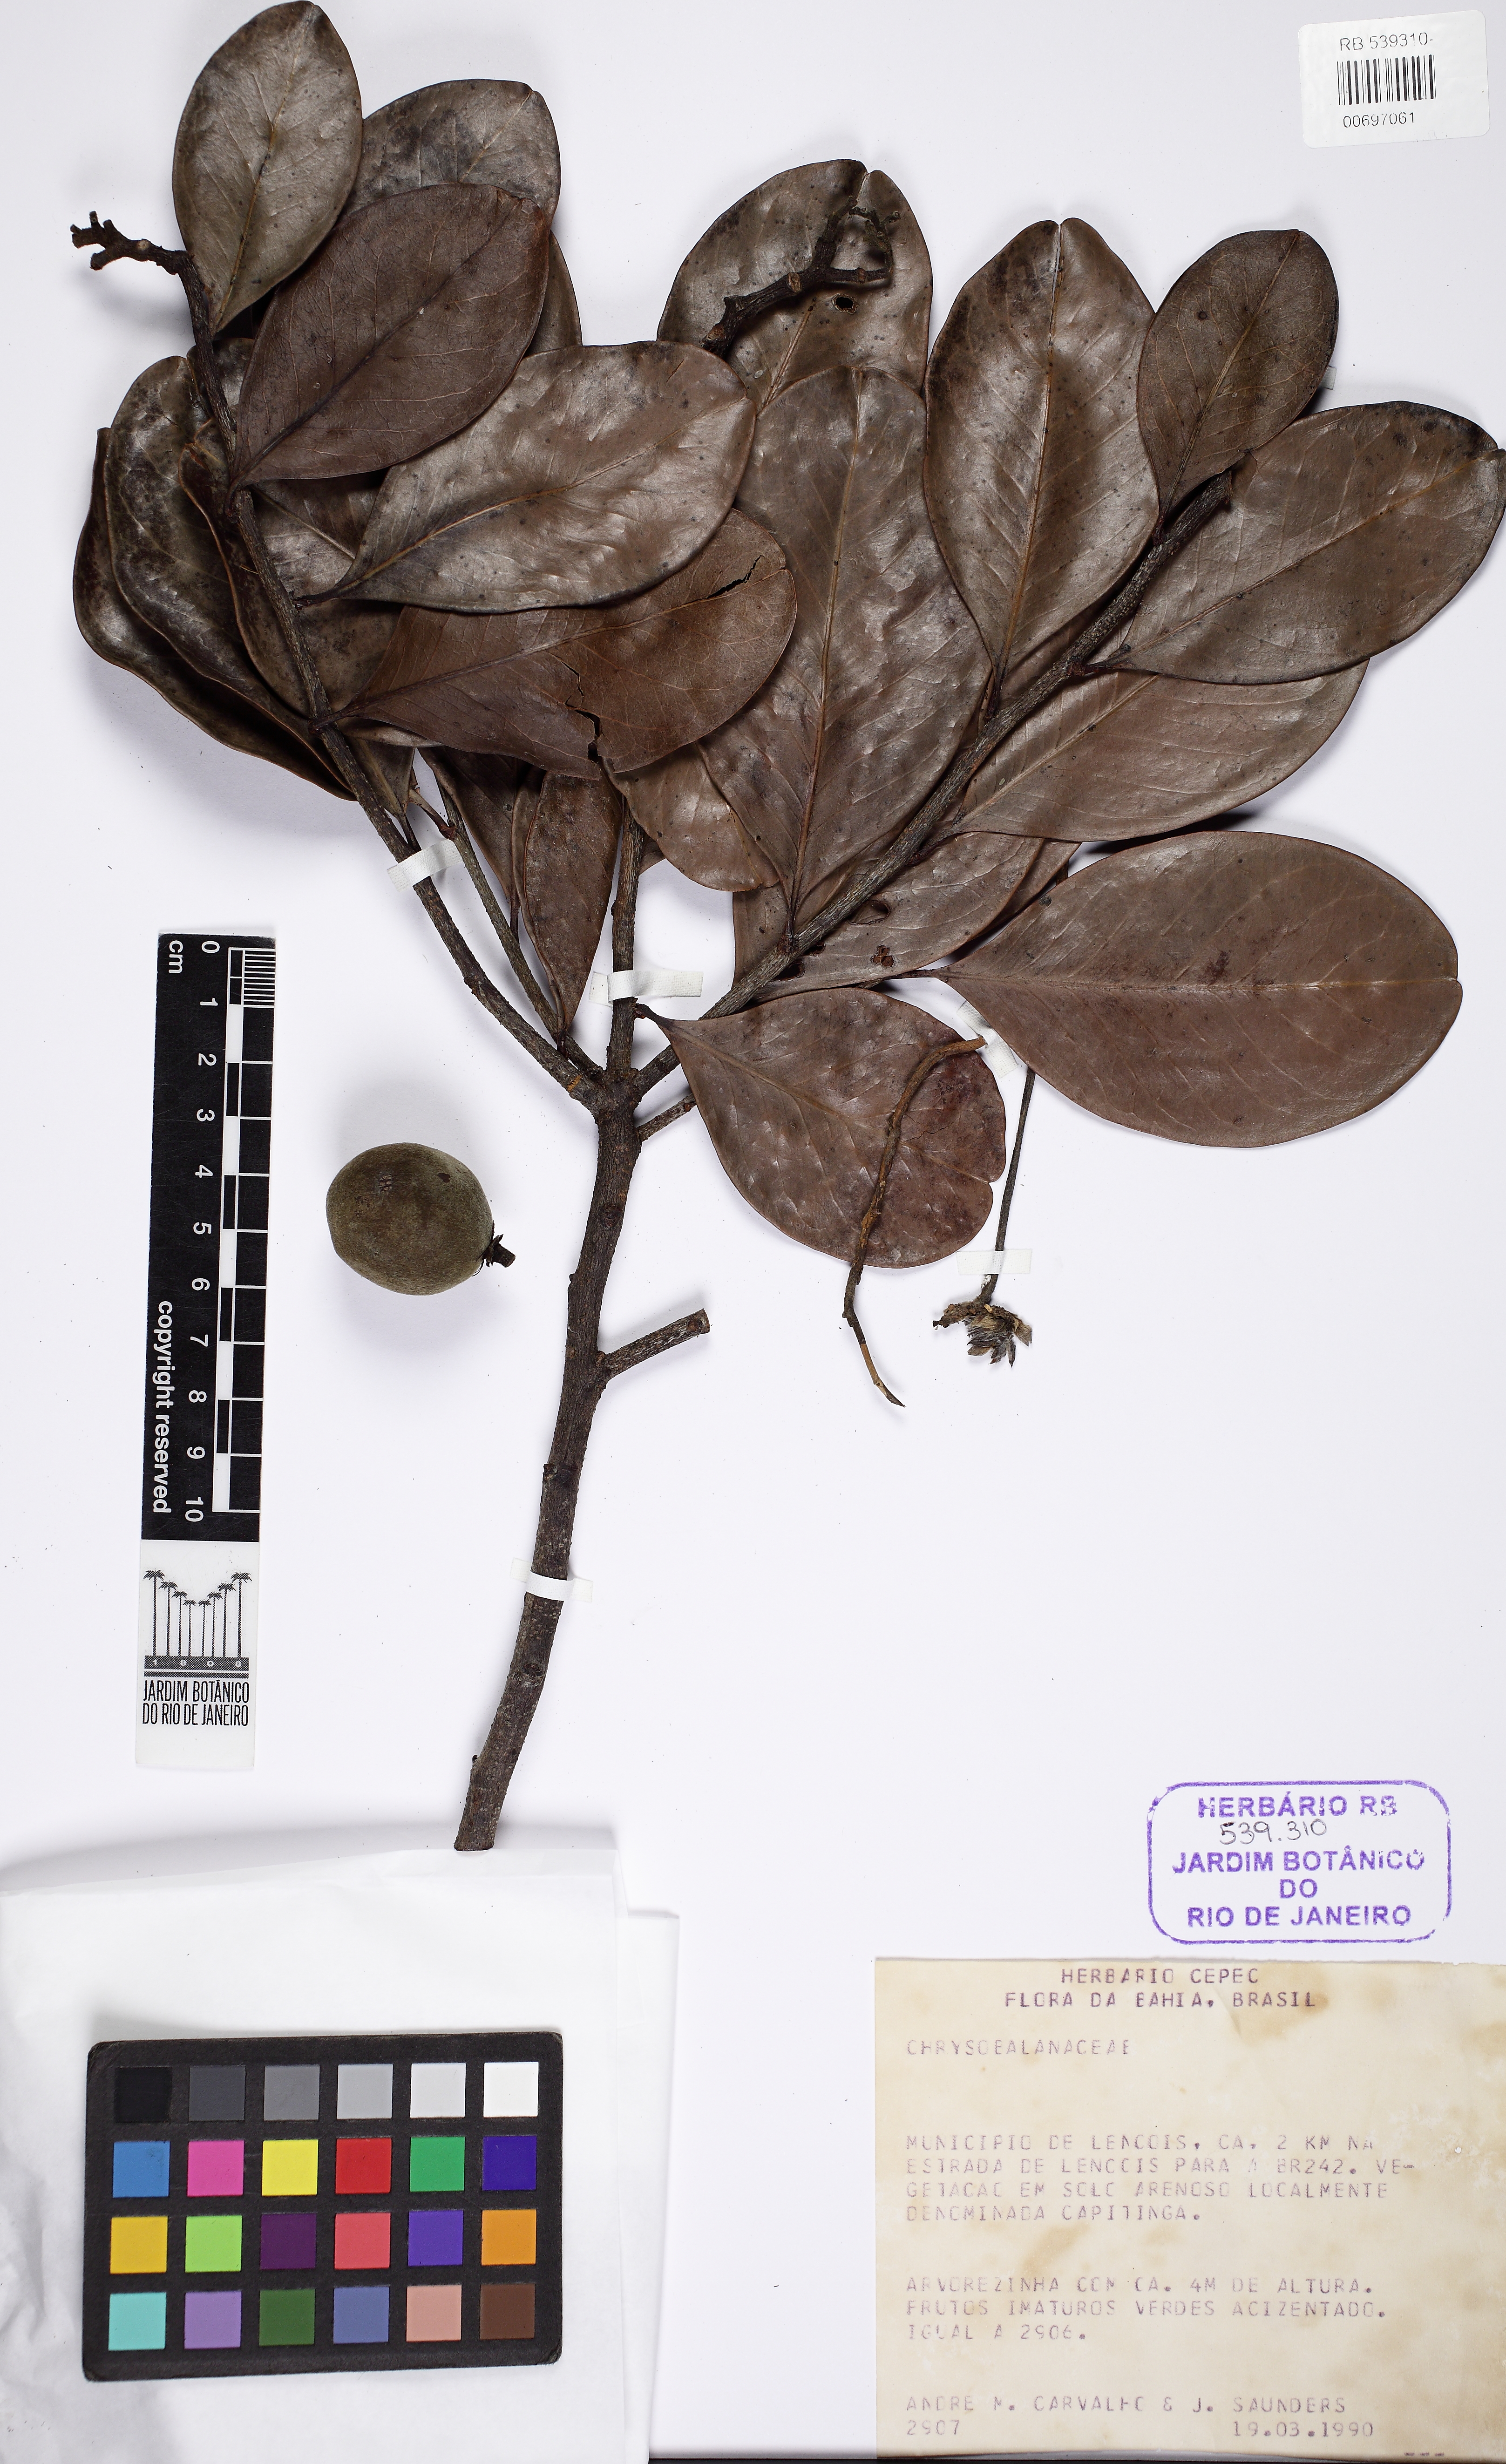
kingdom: Plantae
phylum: Tracheophyta
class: Magnoliopsida
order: Malpighiales
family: Humiriaceae
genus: Vantanea
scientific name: Vantanea obovata
